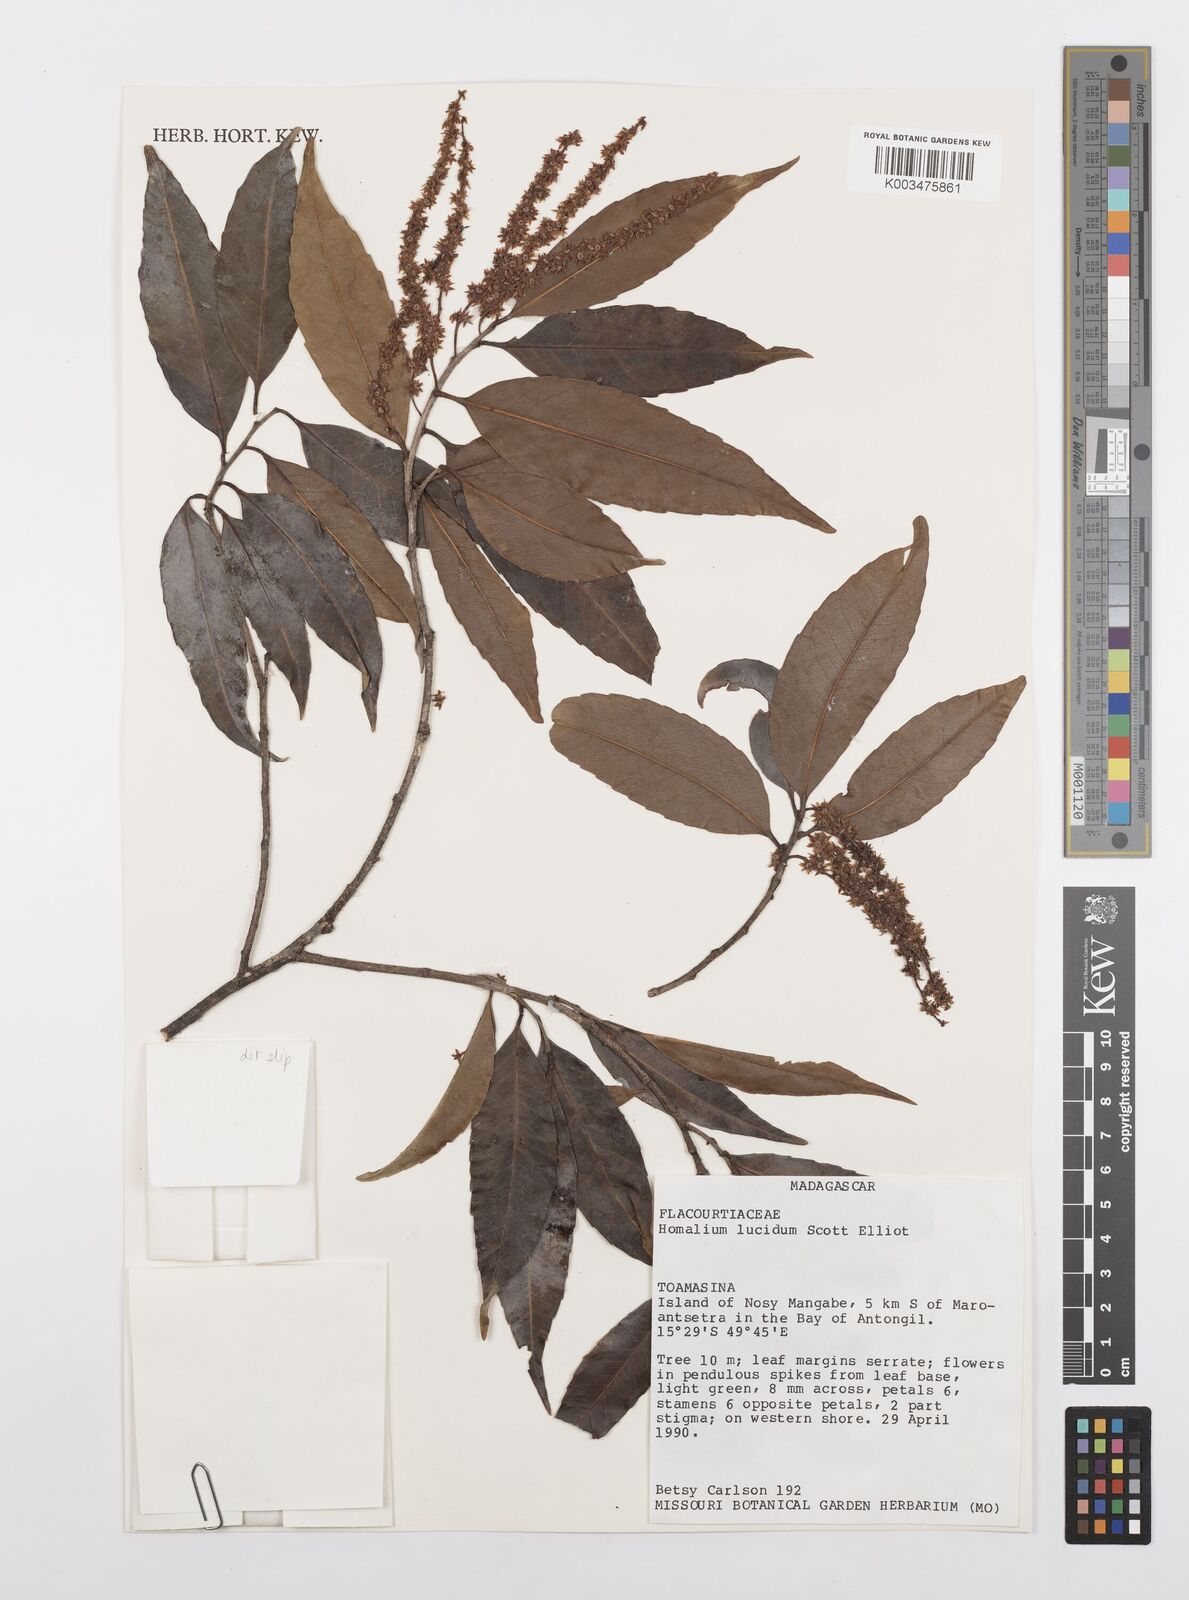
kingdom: Plantae
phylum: Tracheophyta
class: Magnoliopsida
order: Malpighiales
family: Salicaceae
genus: Homalium
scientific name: Homalium lucidum
